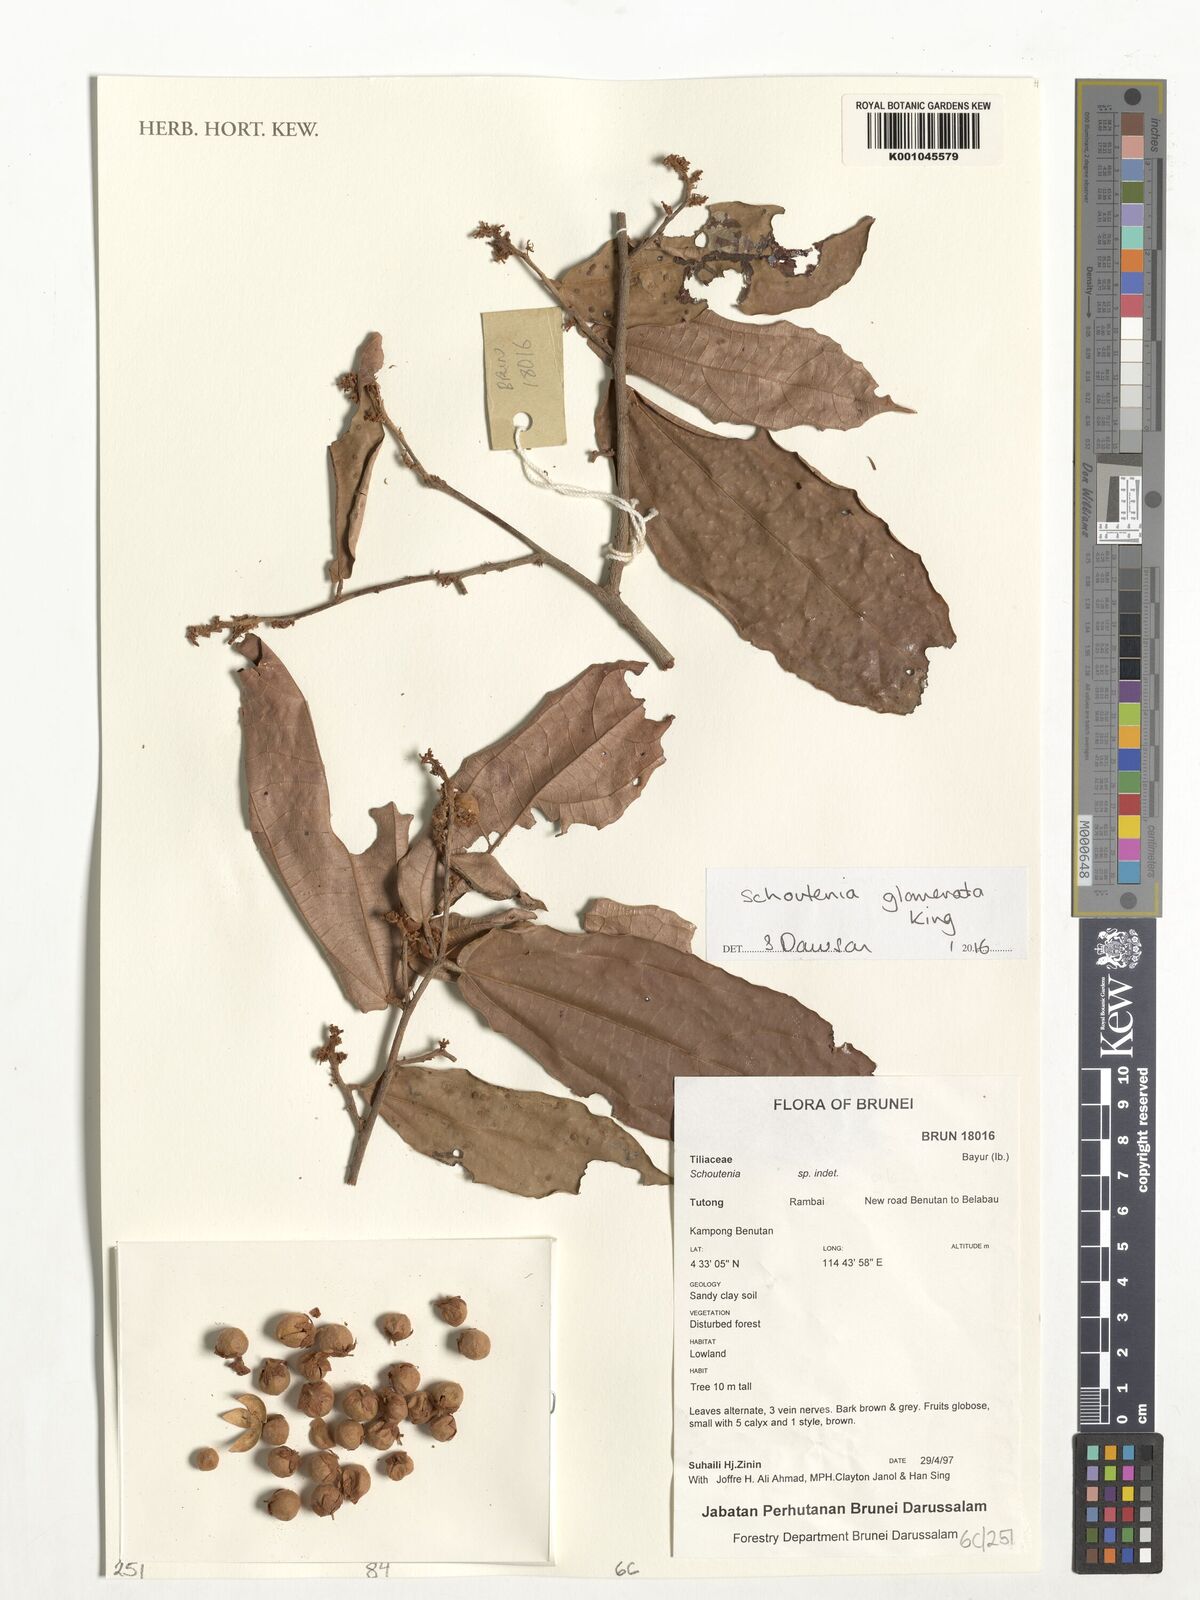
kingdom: Plantae
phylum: Tracheophyta
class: Magnoliopsida
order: Malvales
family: Malvaceae
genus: Schoutenia
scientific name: Schoutenia glomerata
